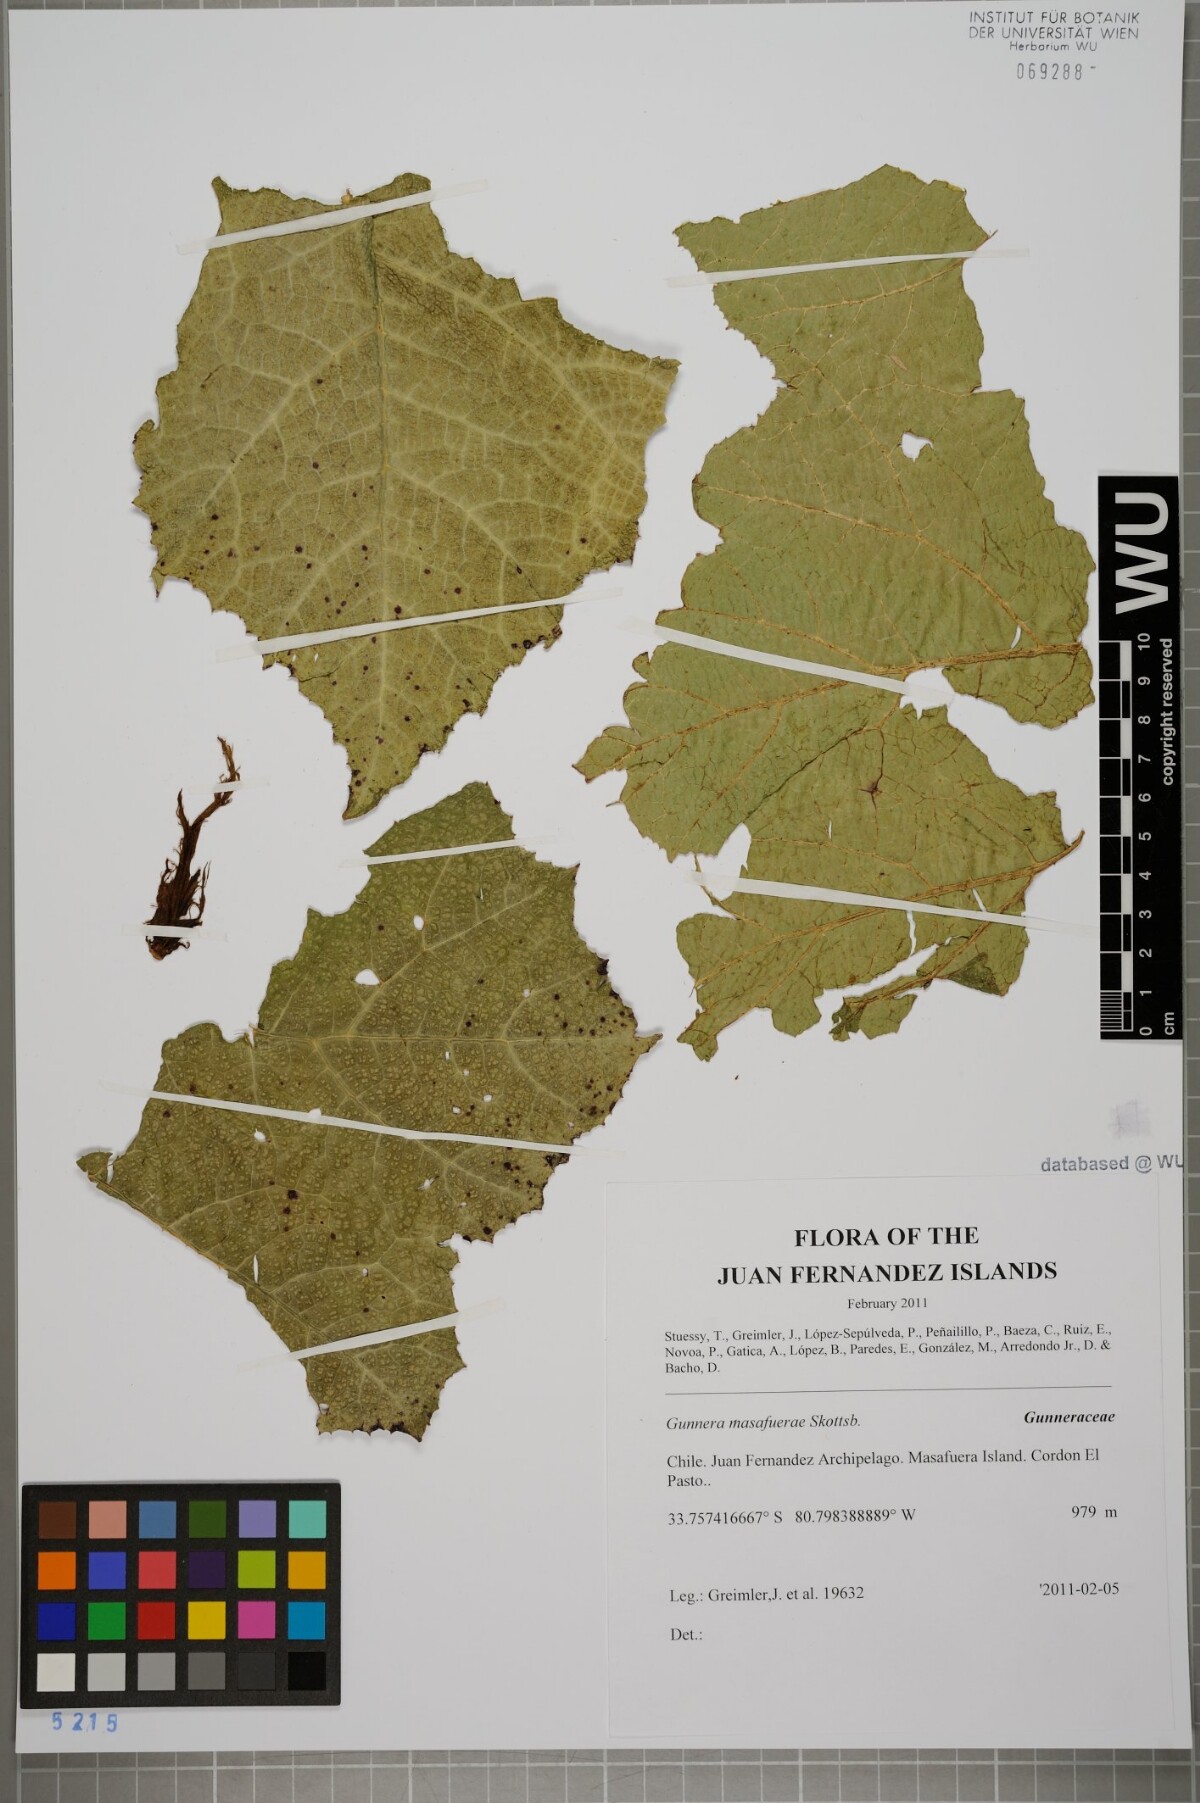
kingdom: Plantae
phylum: Tracheophyta
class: Magnoliopsida
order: Gunnerales
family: Gunneraceae
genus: Gunnera
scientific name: Gunnera masafuerae
